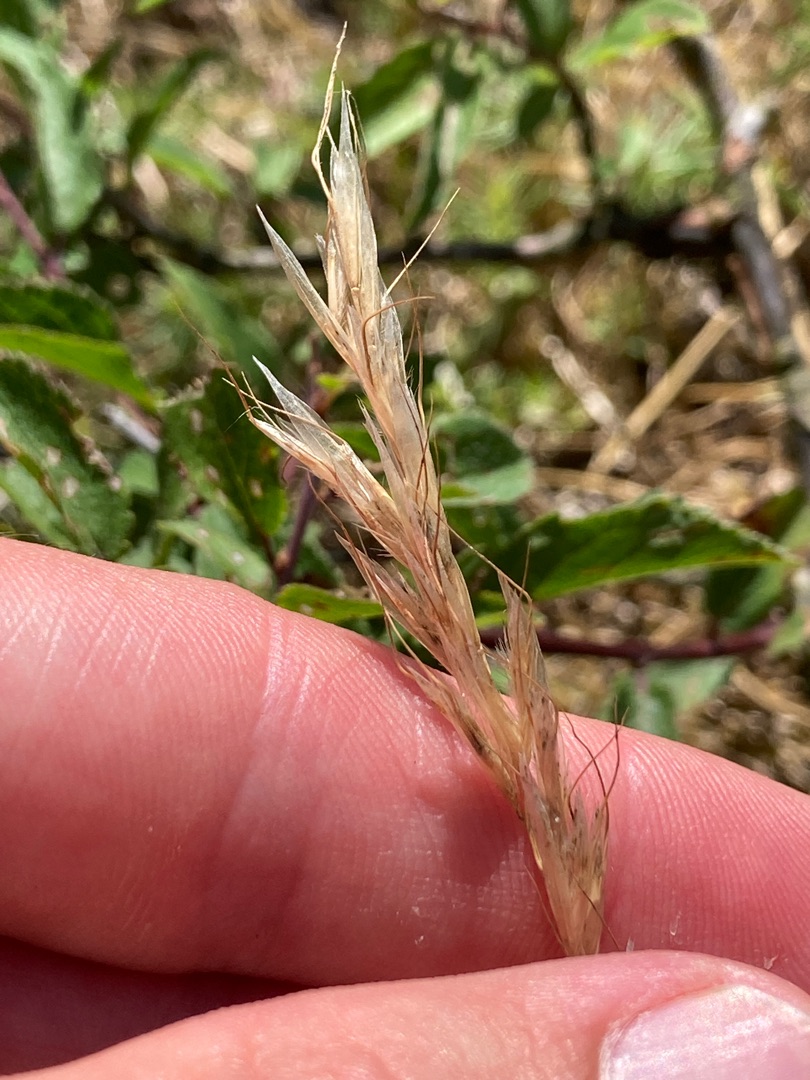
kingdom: Plantae
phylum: Tracheophyta
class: Liliopsida
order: Poales
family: Poaceae
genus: Avenula
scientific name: Avenula pubescens
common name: Dunet havre
